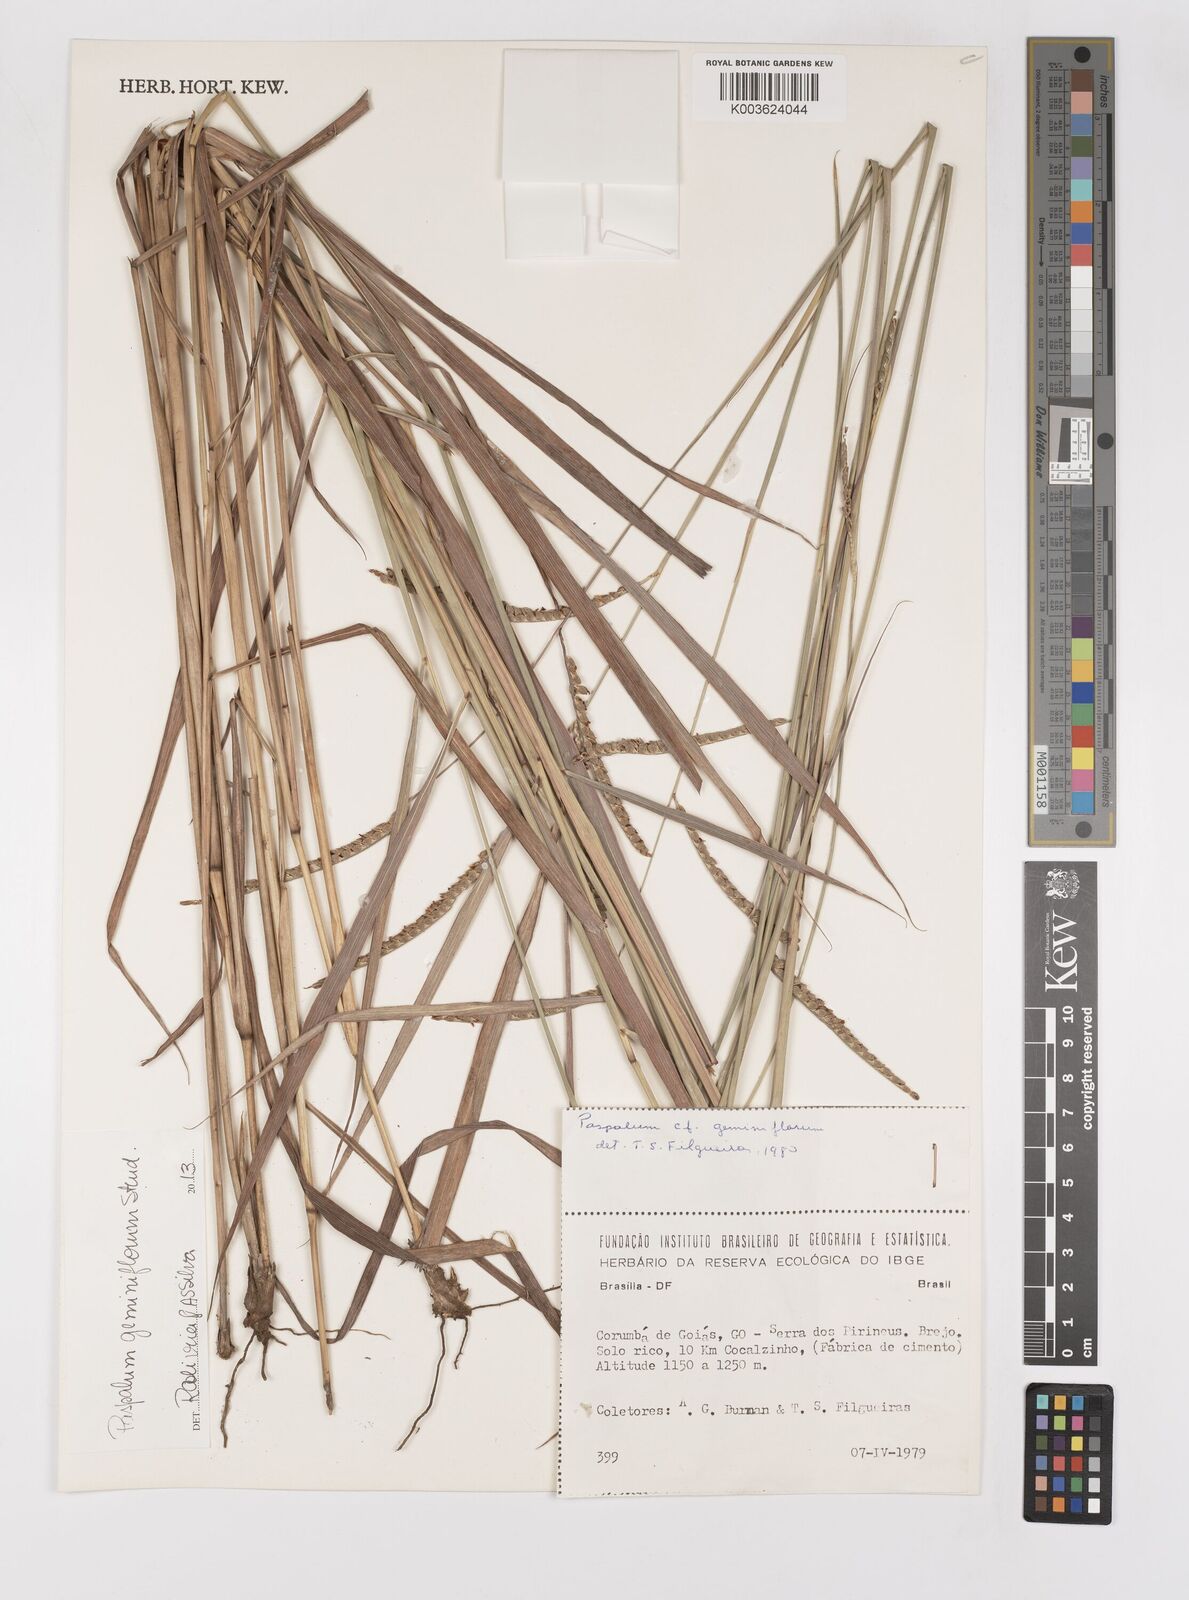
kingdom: Plantae
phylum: Tracheophyta
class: Liliopsida
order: Poales
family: Poaceae
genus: Paspalum
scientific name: Paspalum geminiflorum
